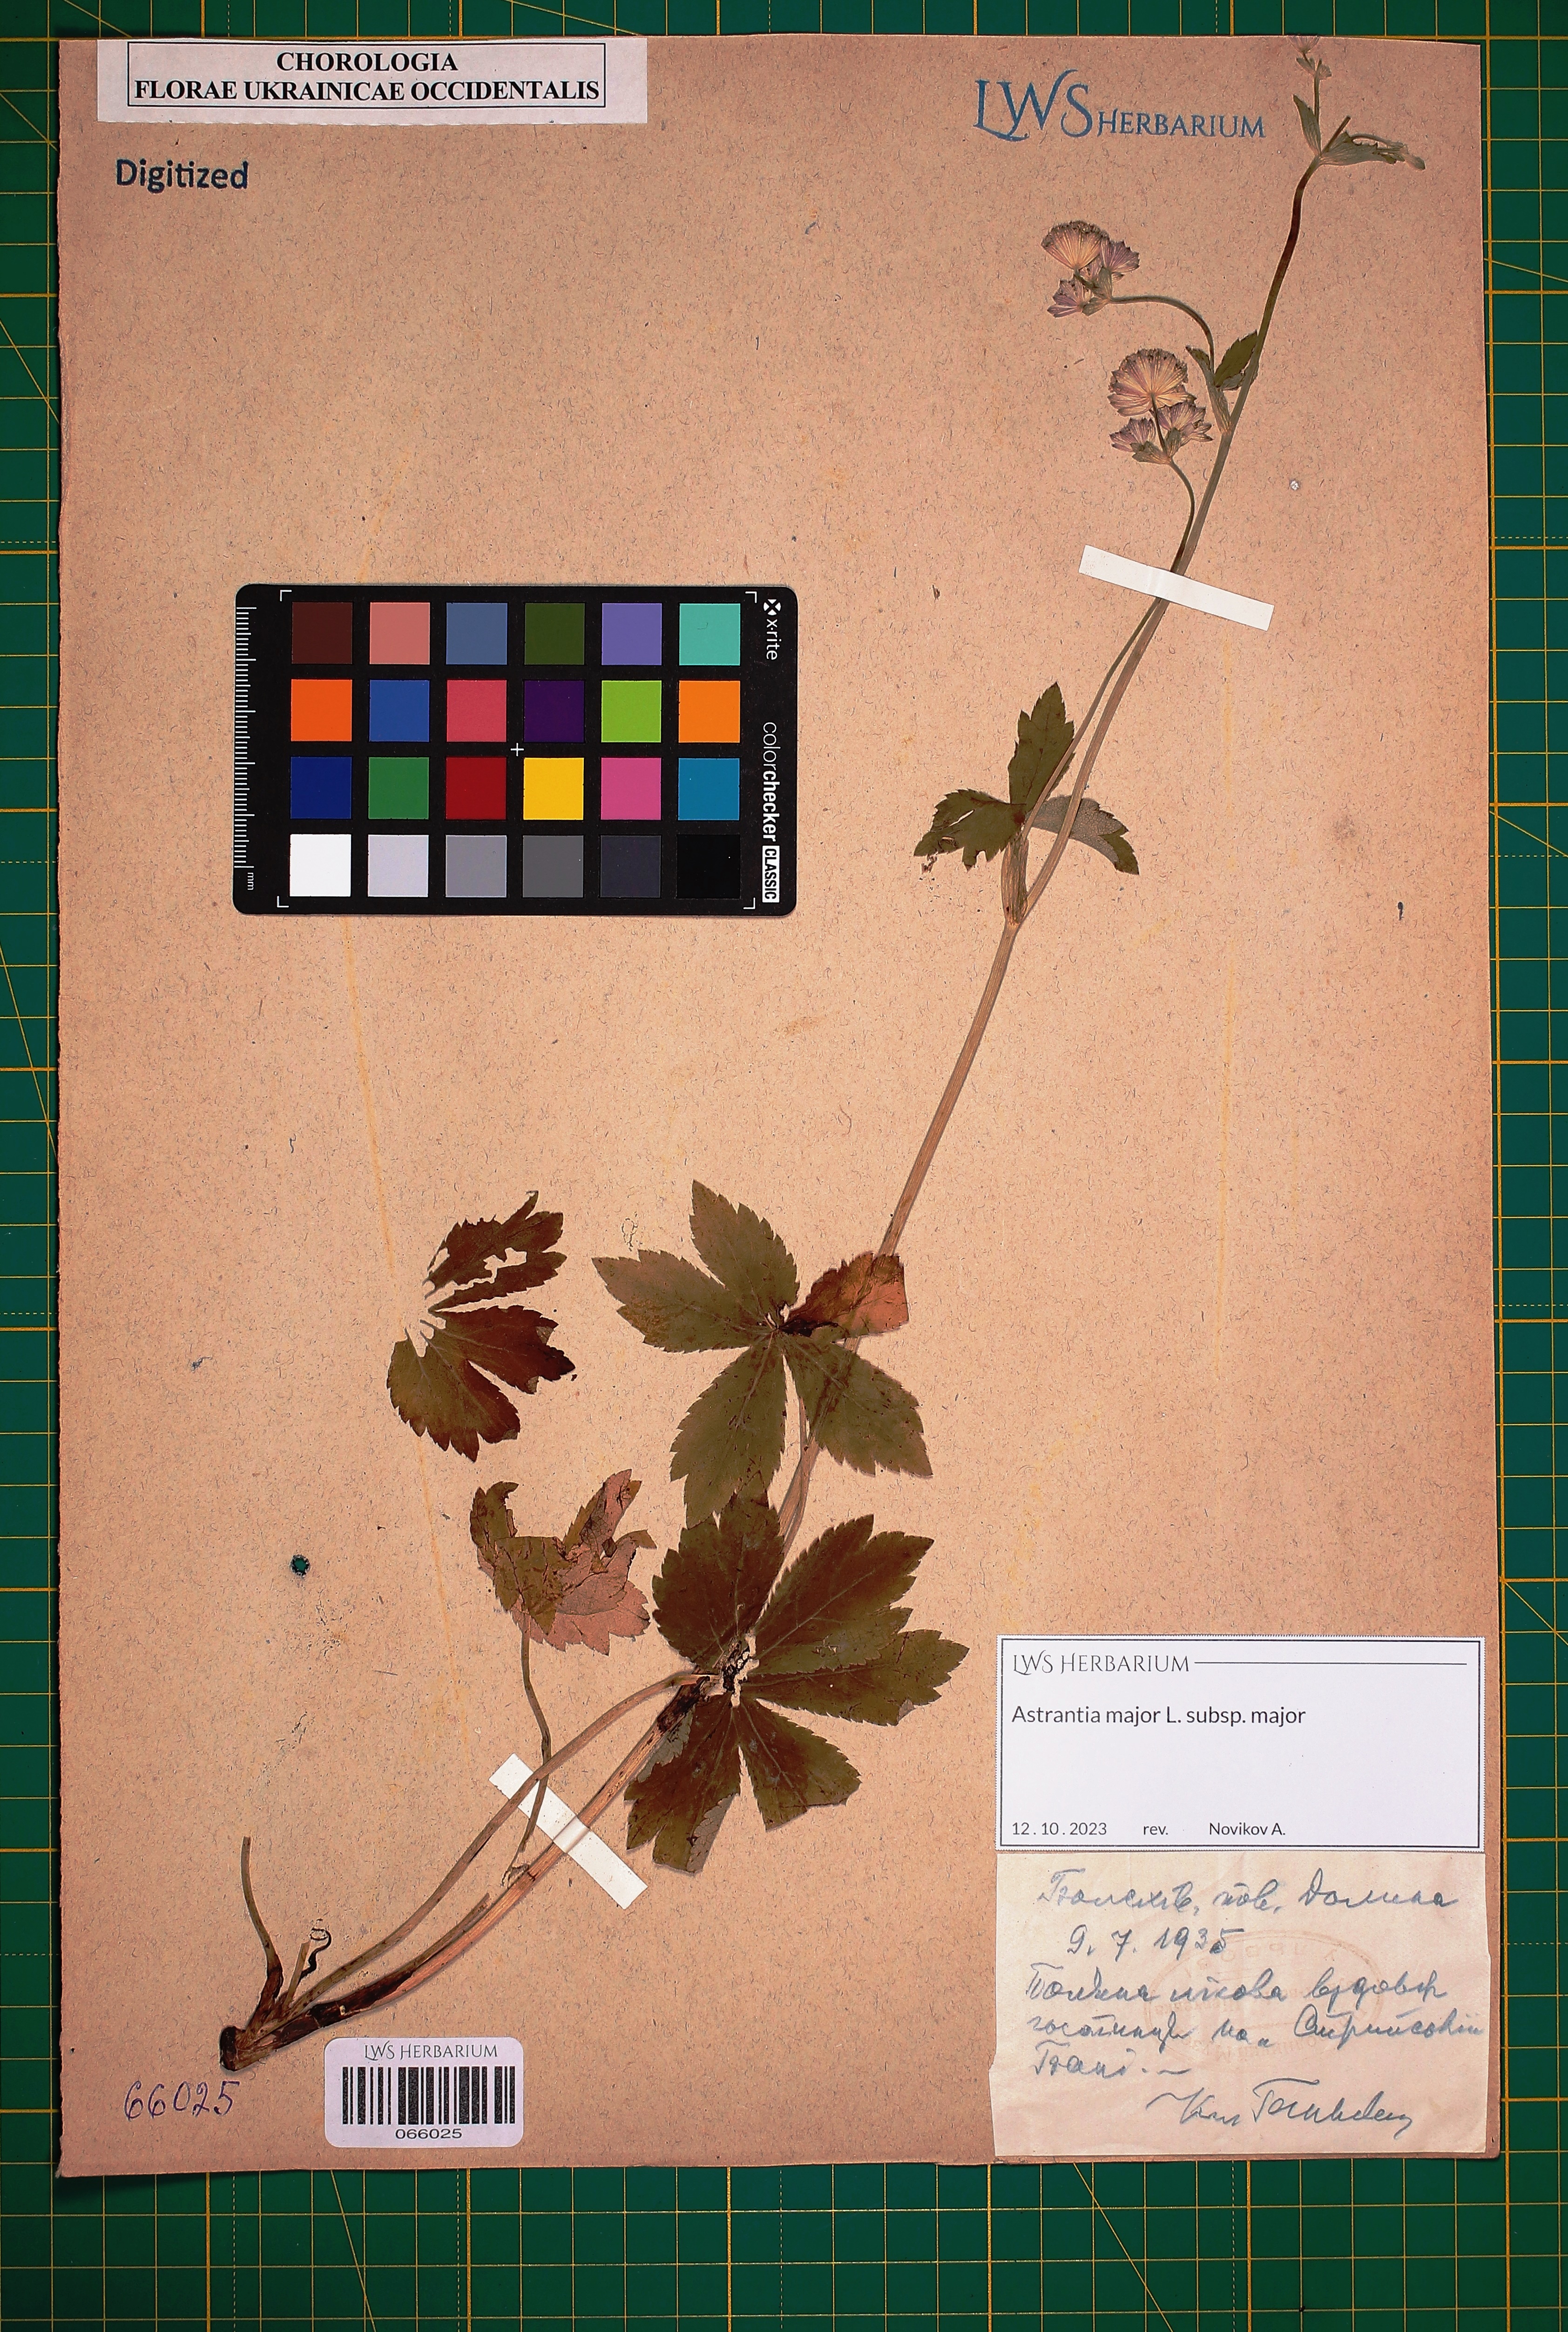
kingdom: Plantae
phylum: Tracheophyta
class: Magnoliopsida
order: Apiales
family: Apiaceae
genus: Astrantia
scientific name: Astrantia major
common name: Greater masterwort
